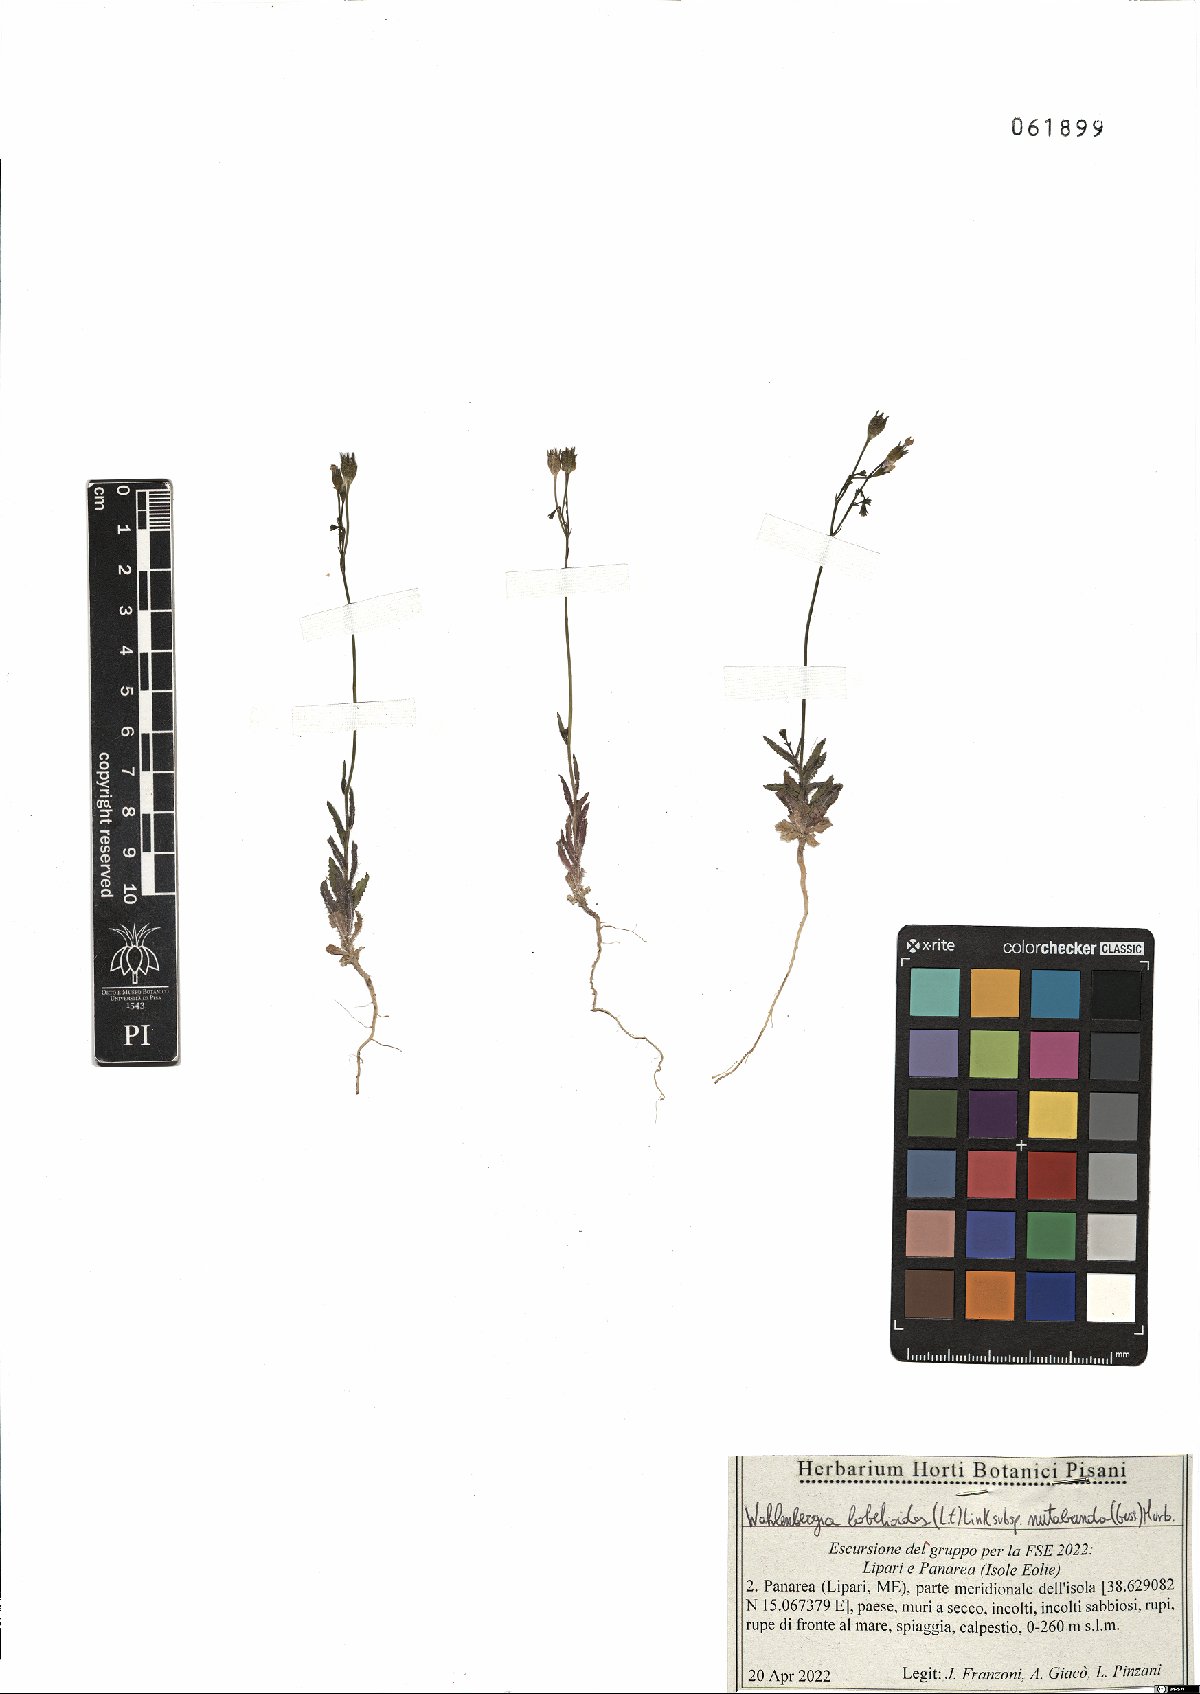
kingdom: Plantae
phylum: Tracheophyta
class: Magnoliopsida
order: Asterales
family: Campanulaceae
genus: Wahlenbergia
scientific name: Wahlenbergia lobelioides
